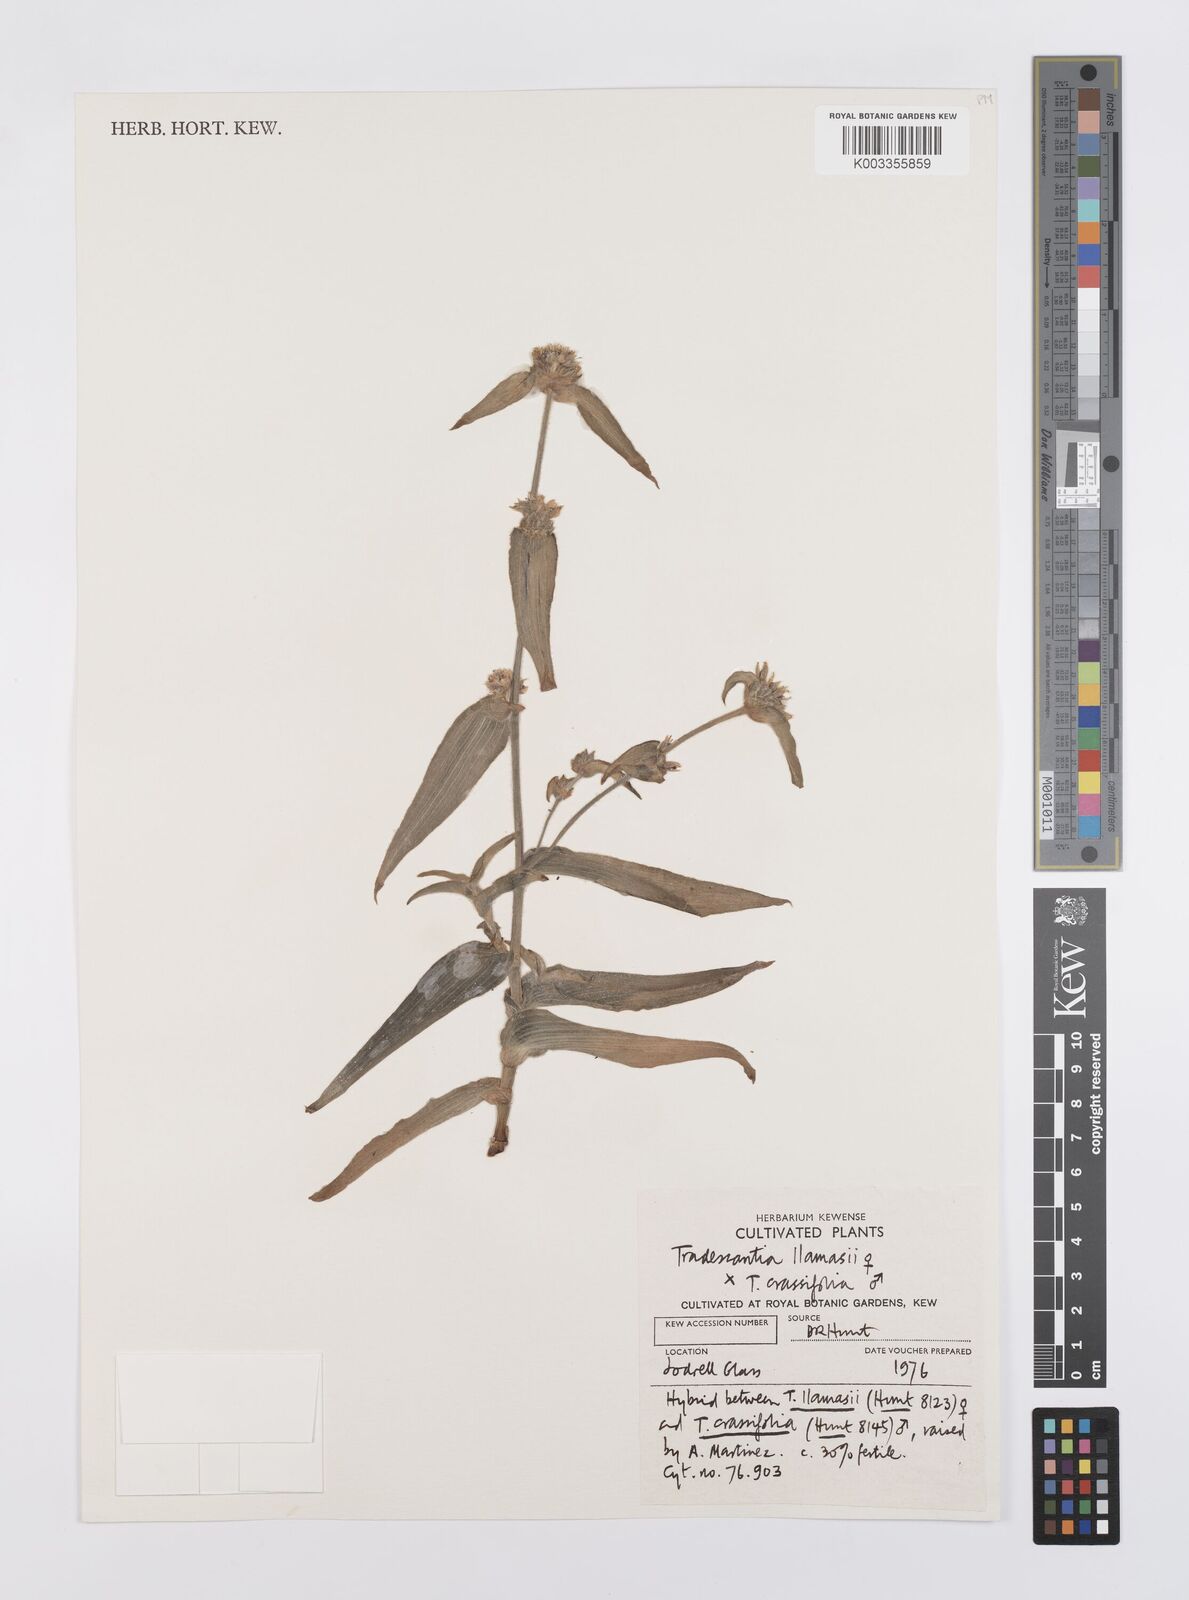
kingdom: Plantae
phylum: Tracheophyta
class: Liliopsida
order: Commelinales
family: Commelinaceae
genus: Tradescantia
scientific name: Tradescantia llamasii
